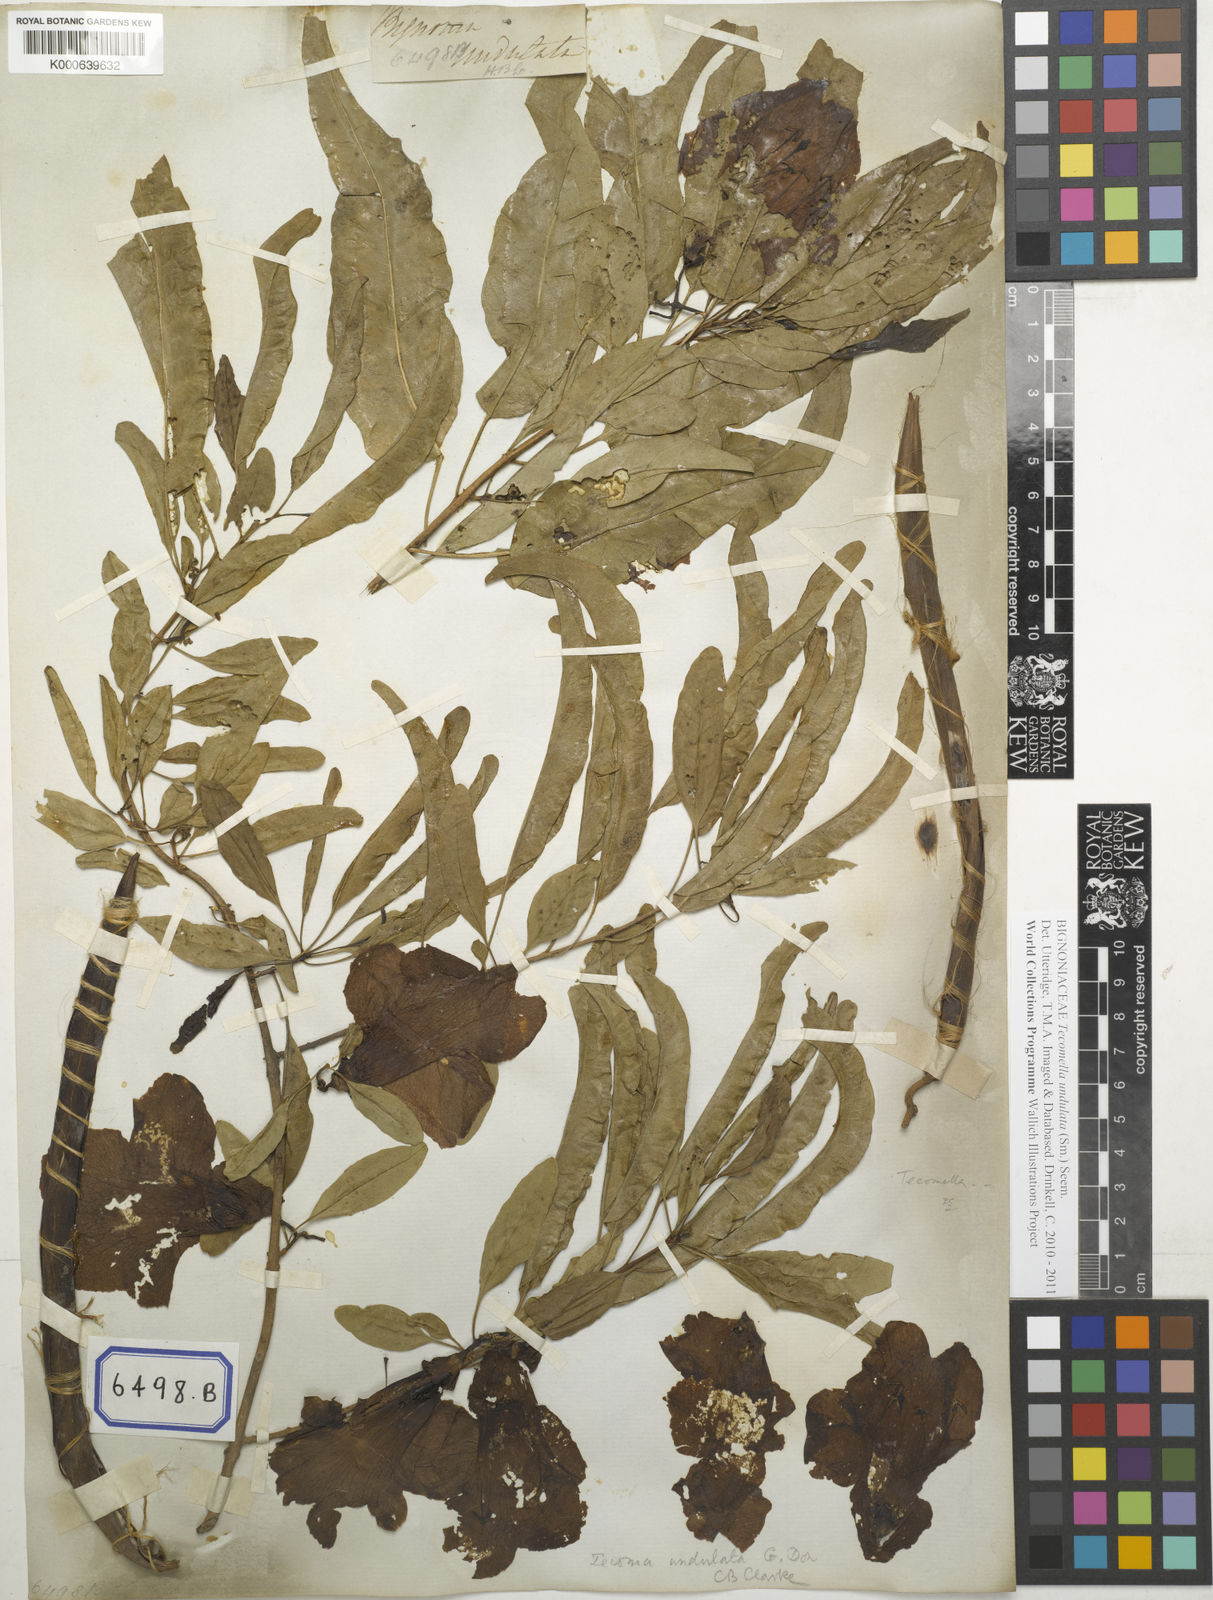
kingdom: Plantae
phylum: Tracheophyta
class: Magnoliopsida
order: Lamiales
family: Bignoniaceae
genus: Tecomella
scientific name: Tecomella undulata
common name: Desert teak
